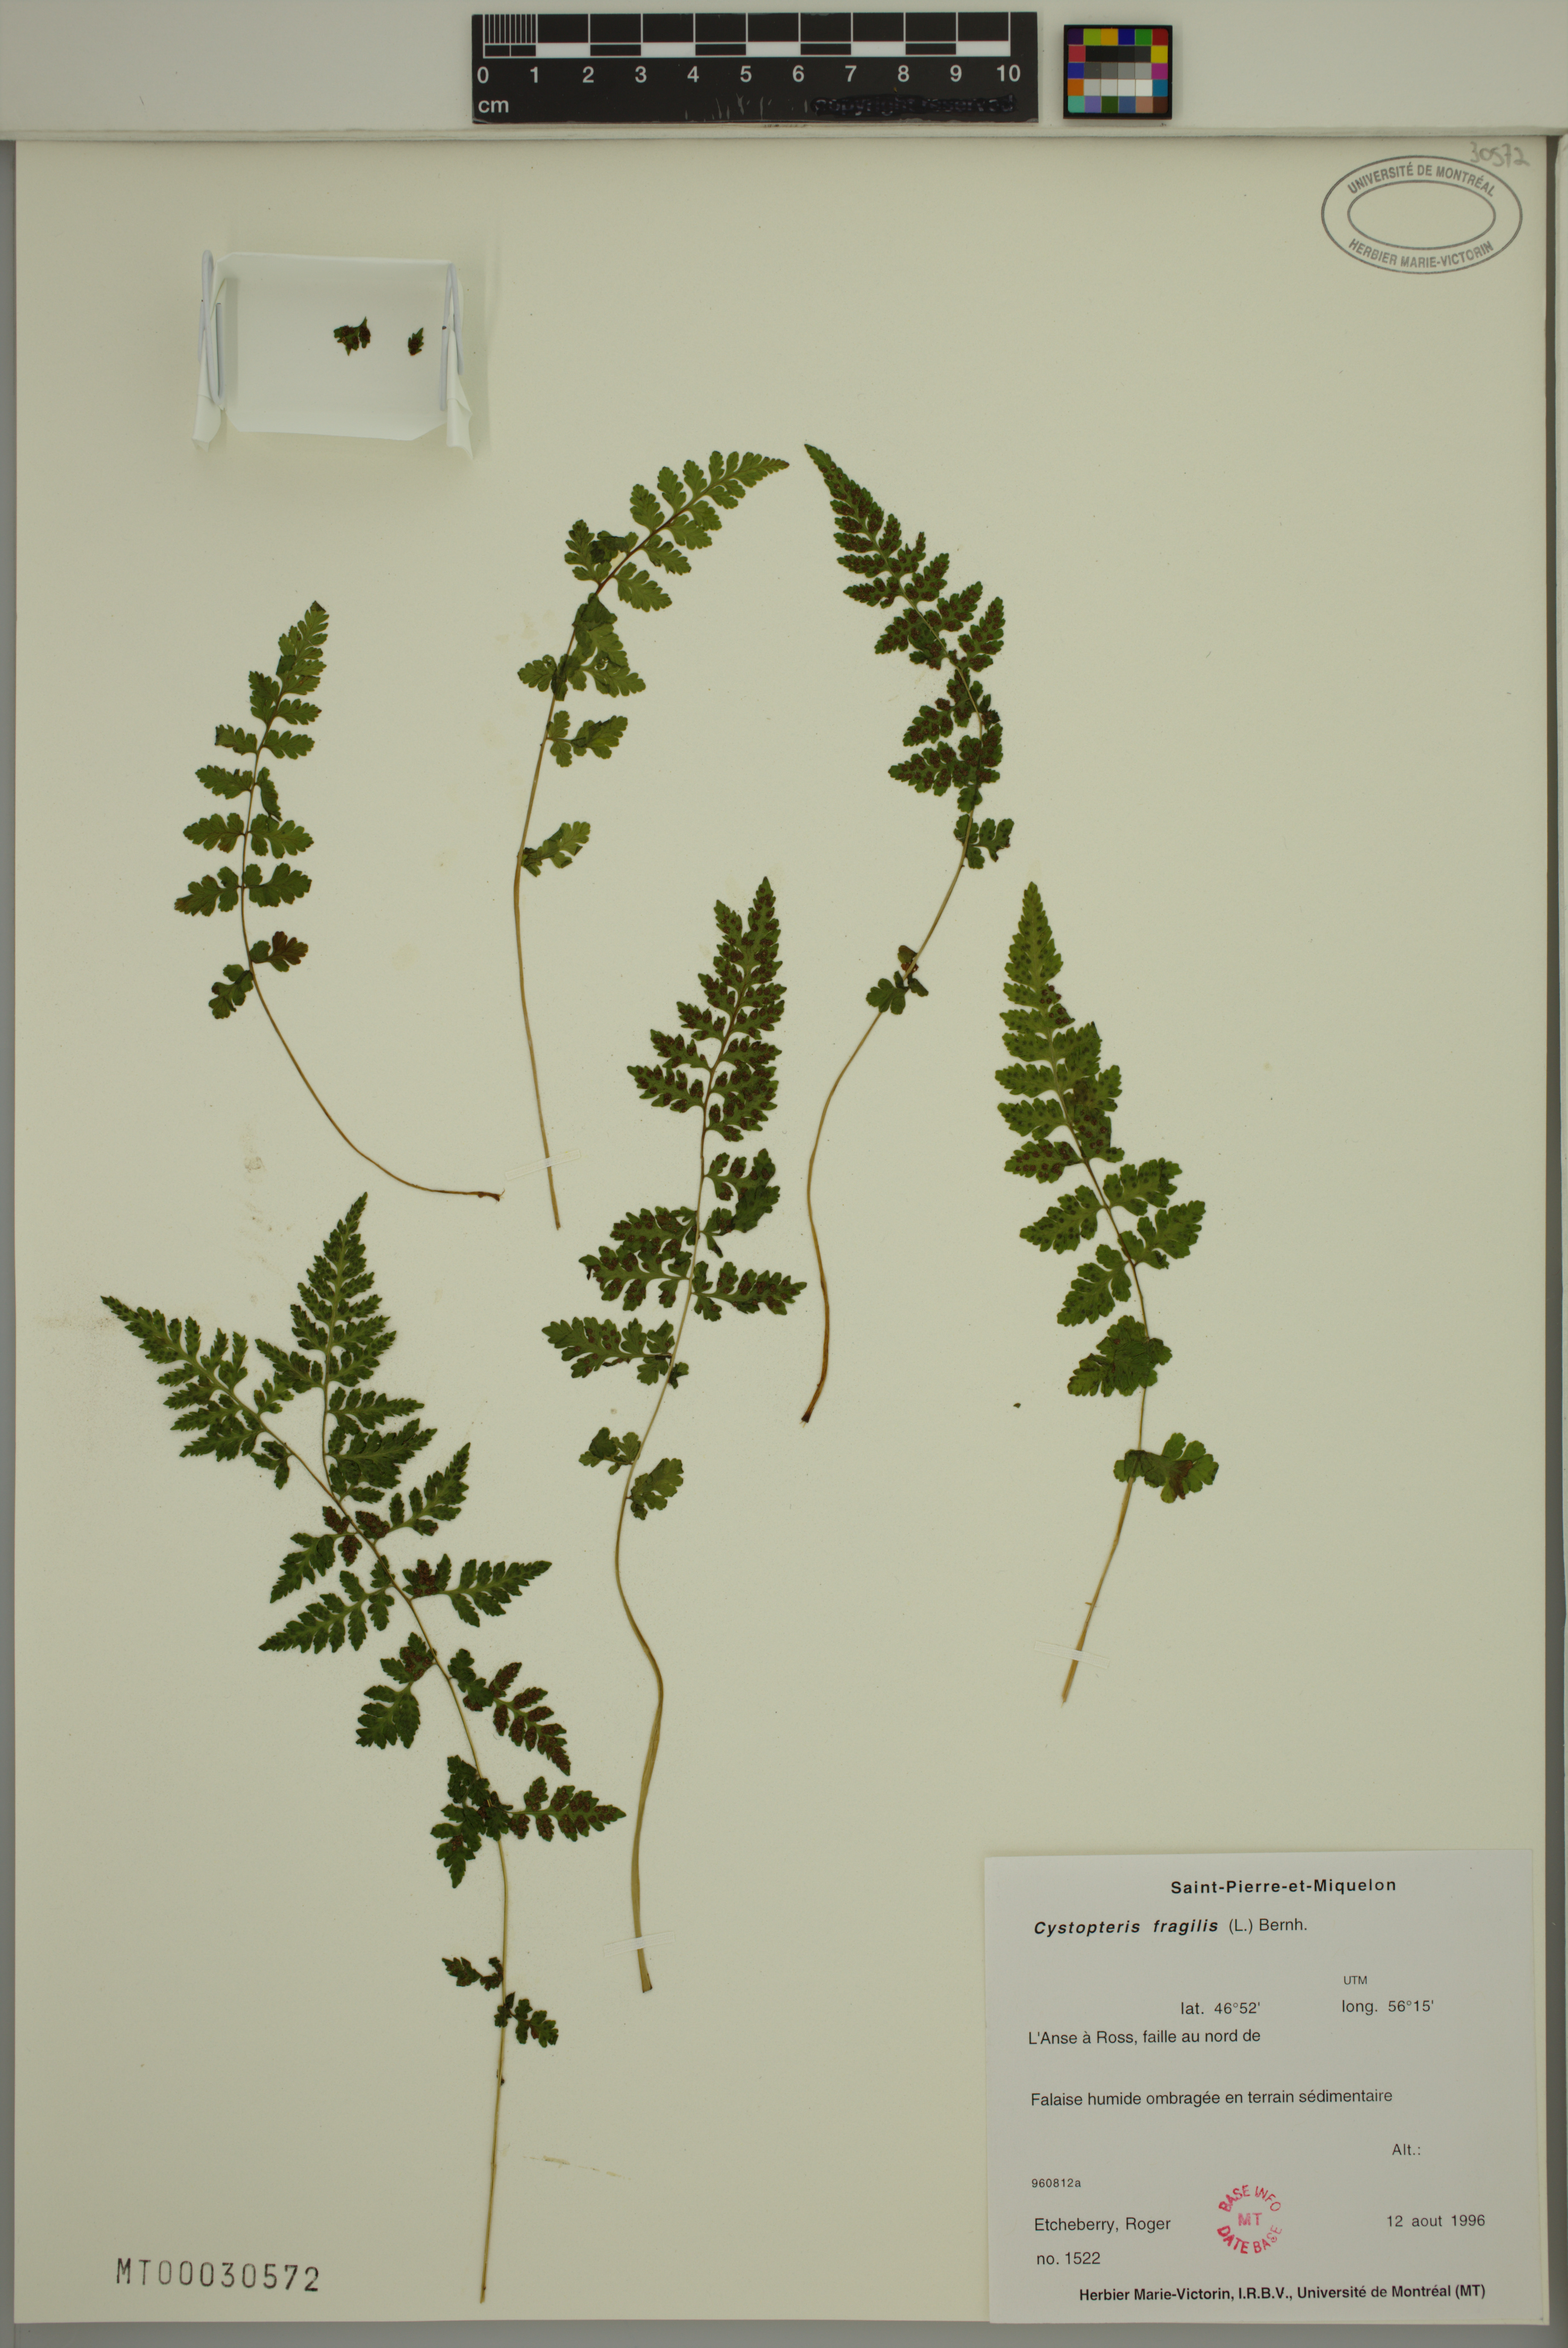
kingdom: Plantae
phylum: Tracheophyta
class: Polypodiopsida
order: Polypodiales
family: Cystopteridaceae
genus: Cystopteris
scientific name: Cystopteris fragilis
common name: Brittle bladder fern
